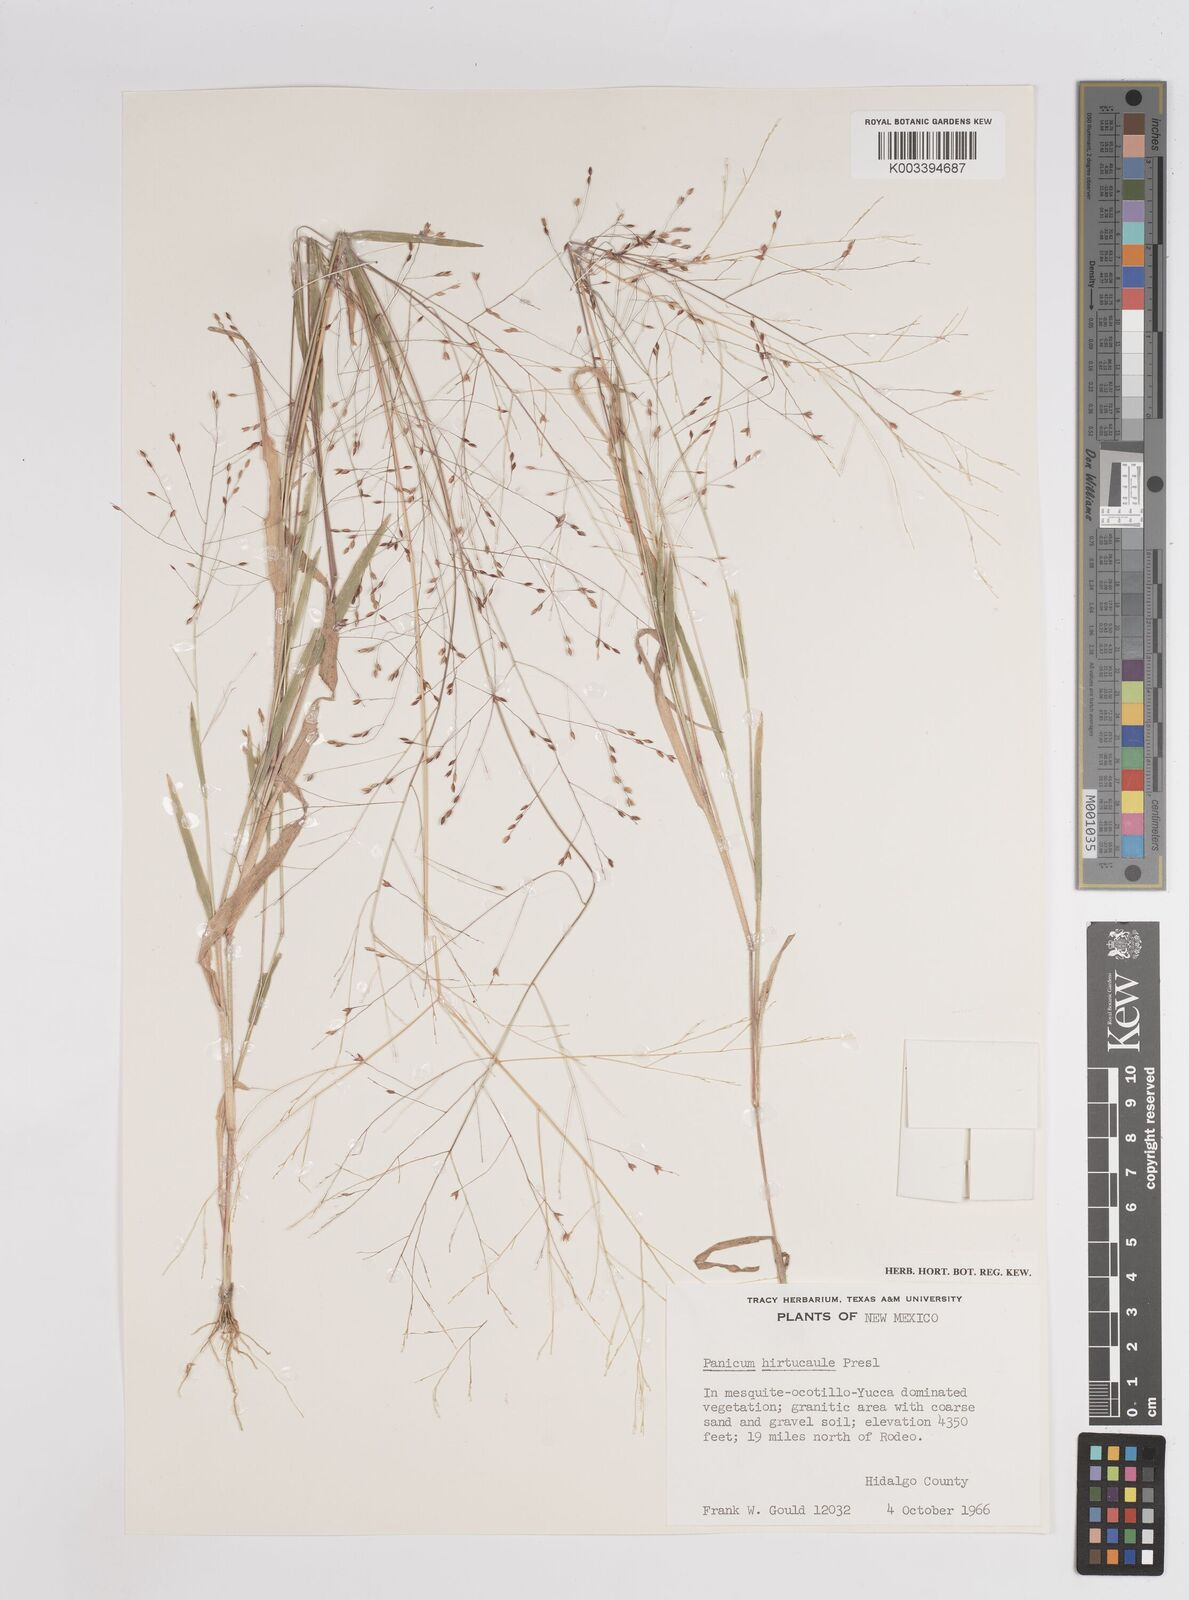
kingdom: Plantae
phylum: Tracheophyta
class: Liliopsida
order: Poales
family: Poaceae
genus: Panicum
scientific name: Panicum
